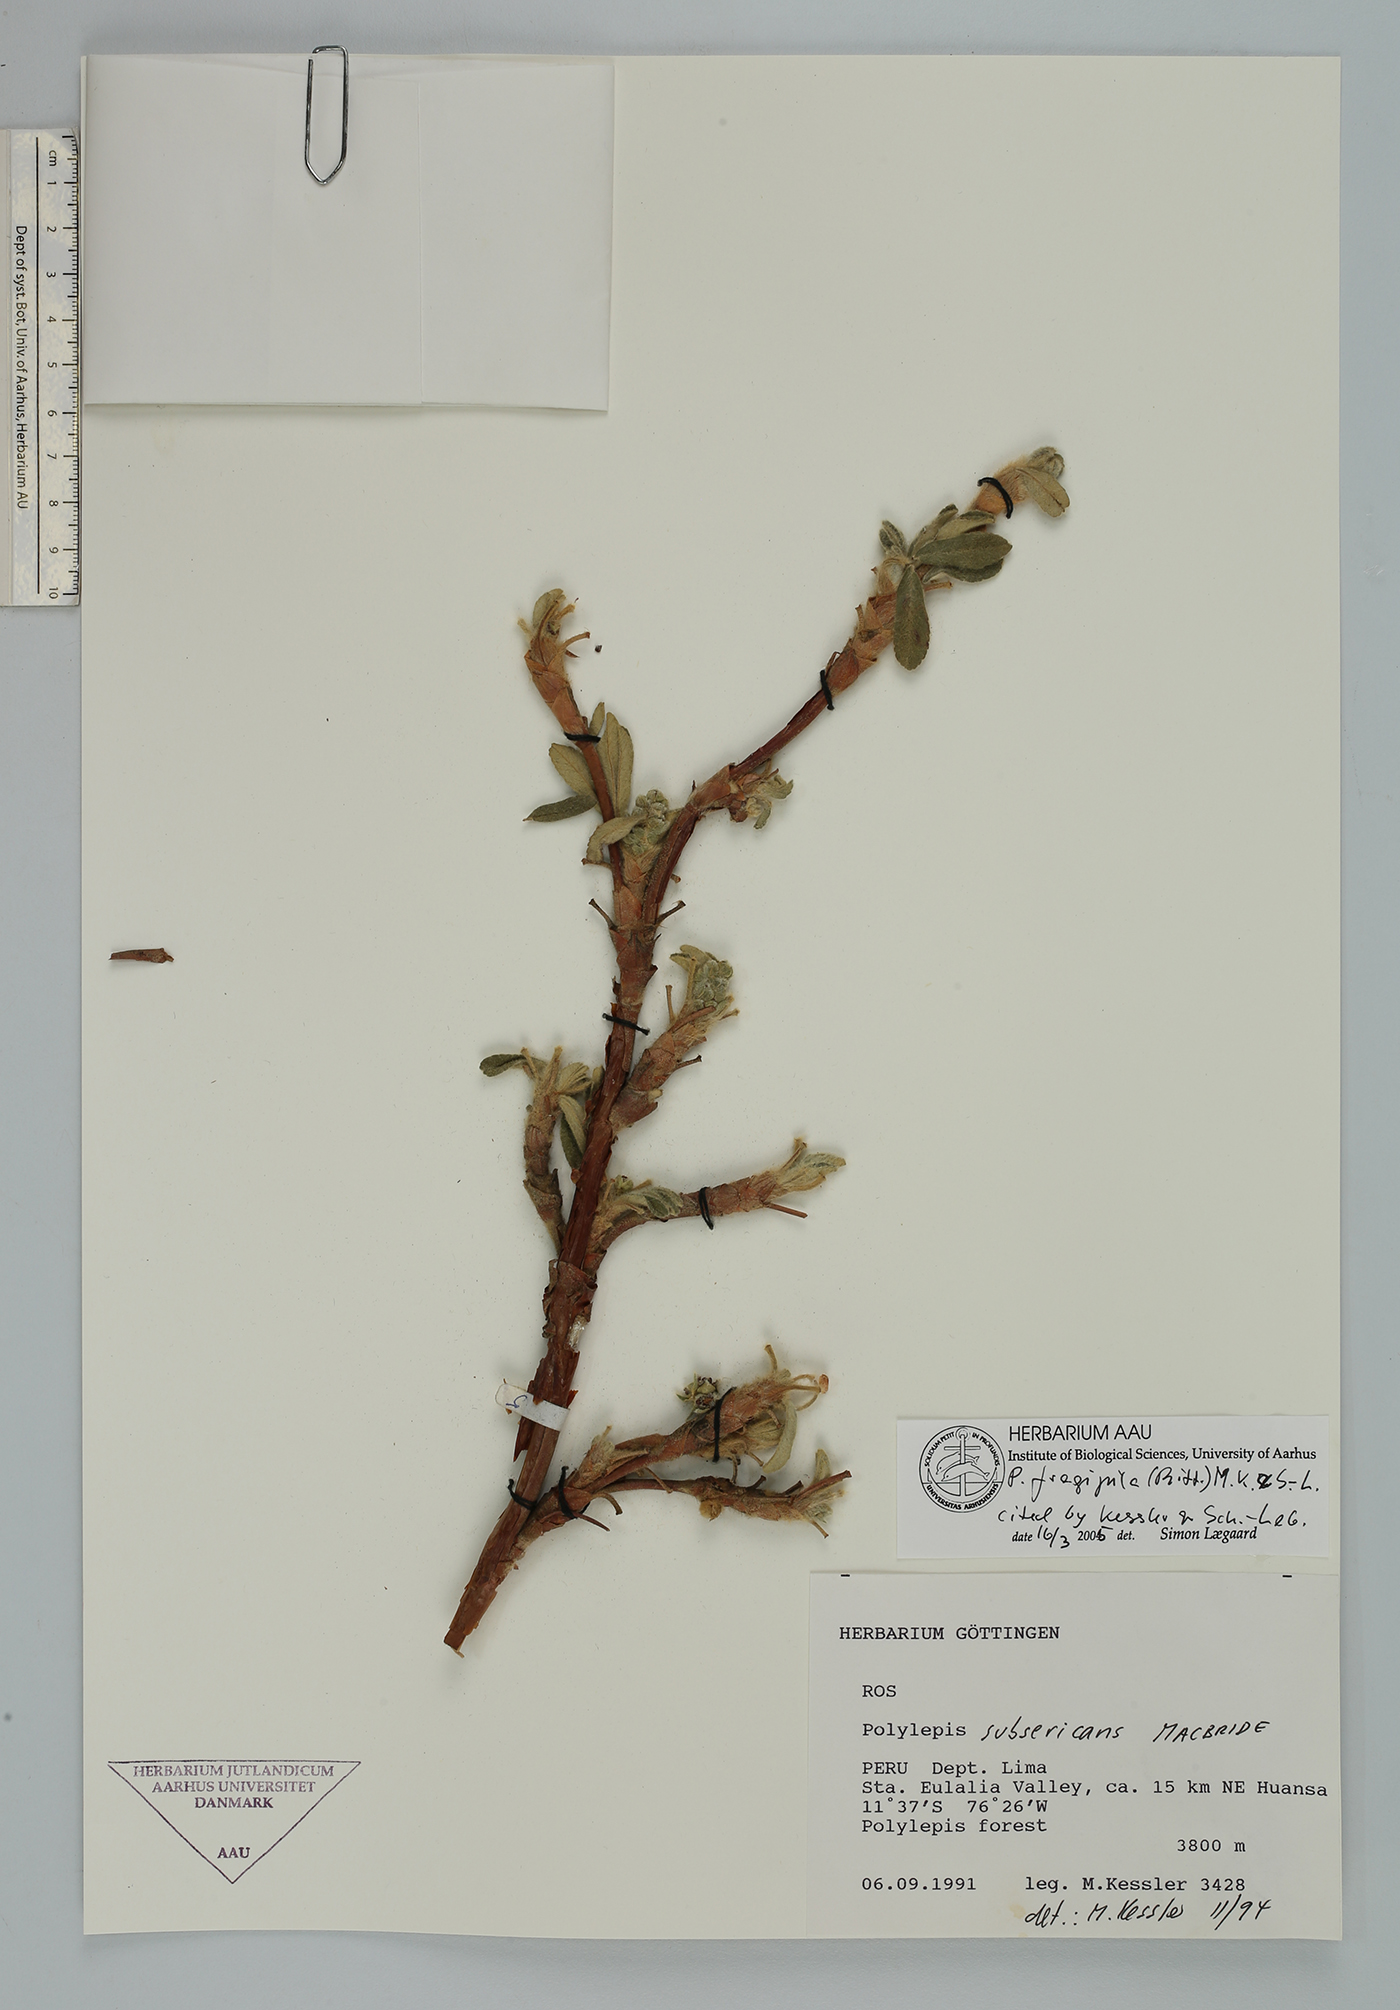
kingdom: Plantae
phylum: Tracheophyta
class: Magnoliopsida
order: Rosales
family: Rosaceae
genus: Polylepis
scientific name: Polylepis flavipila
